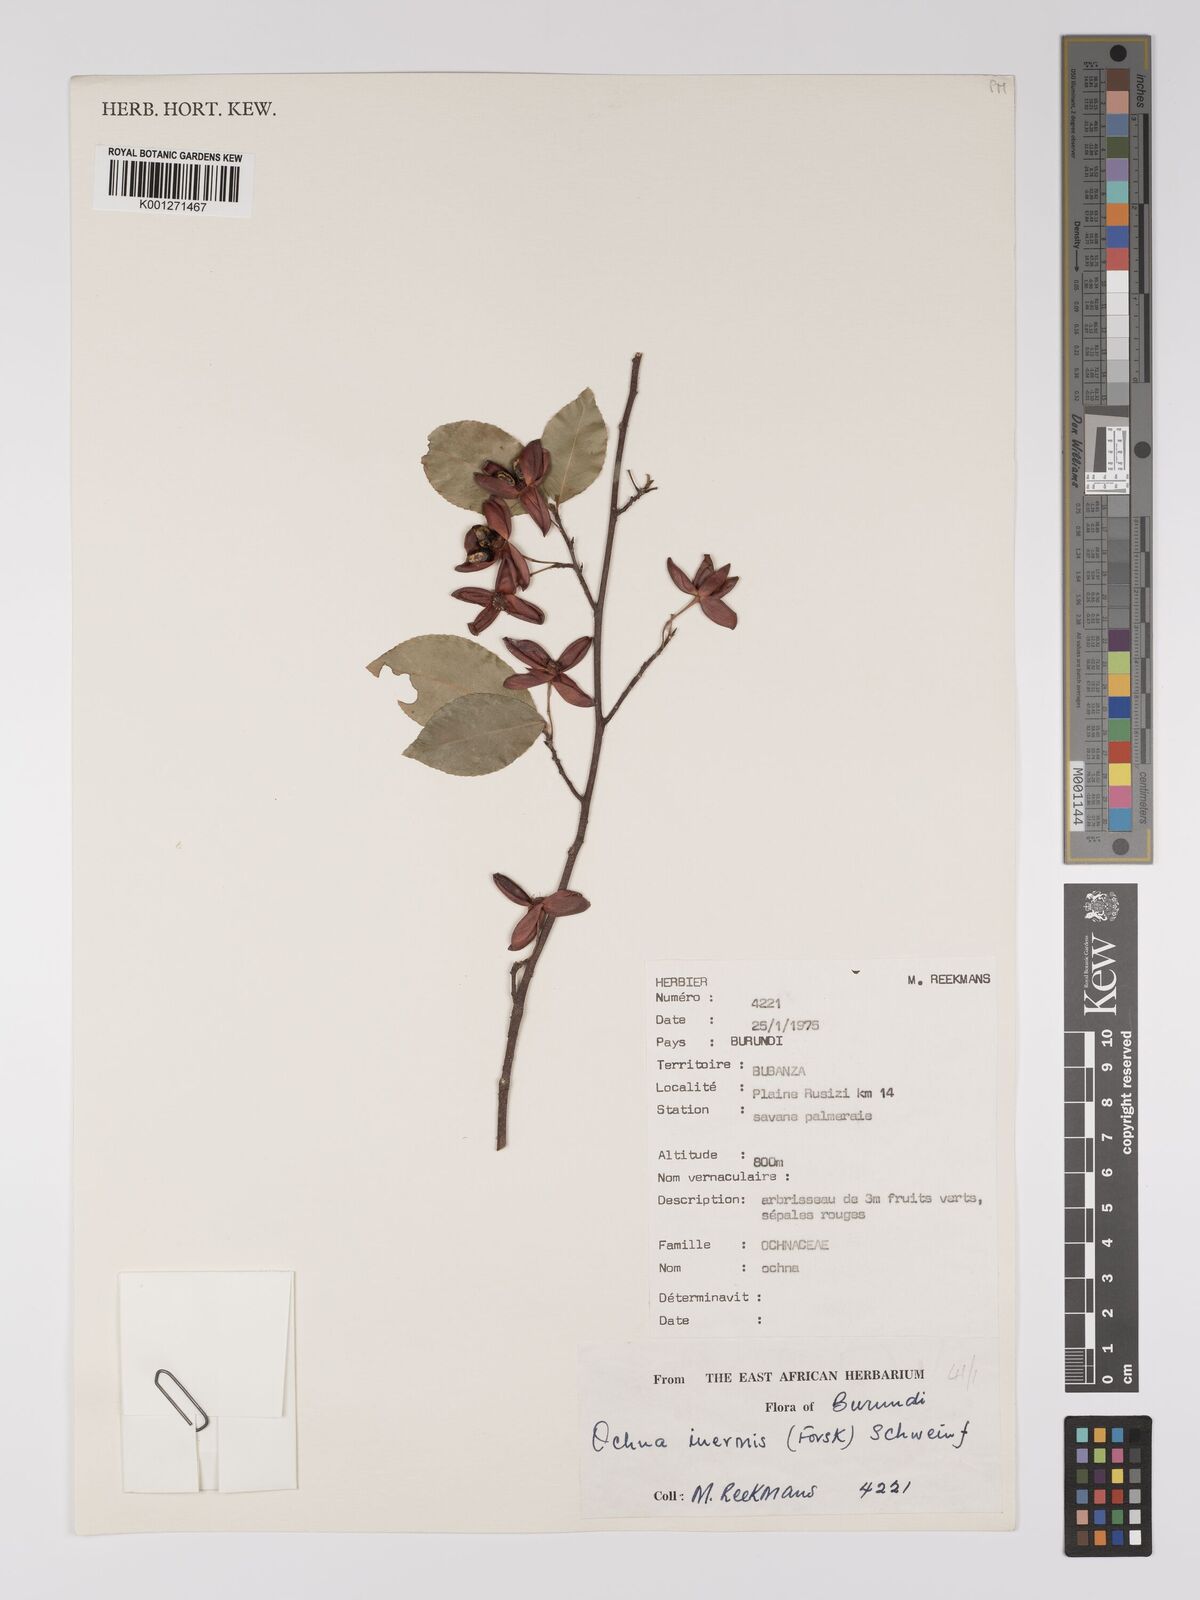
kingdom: Plantae
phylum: Tracheophyta
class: Magnoliopsida
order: Malpighiales
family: Ochnaceae
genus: Ochna
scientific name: Ochna inermis
